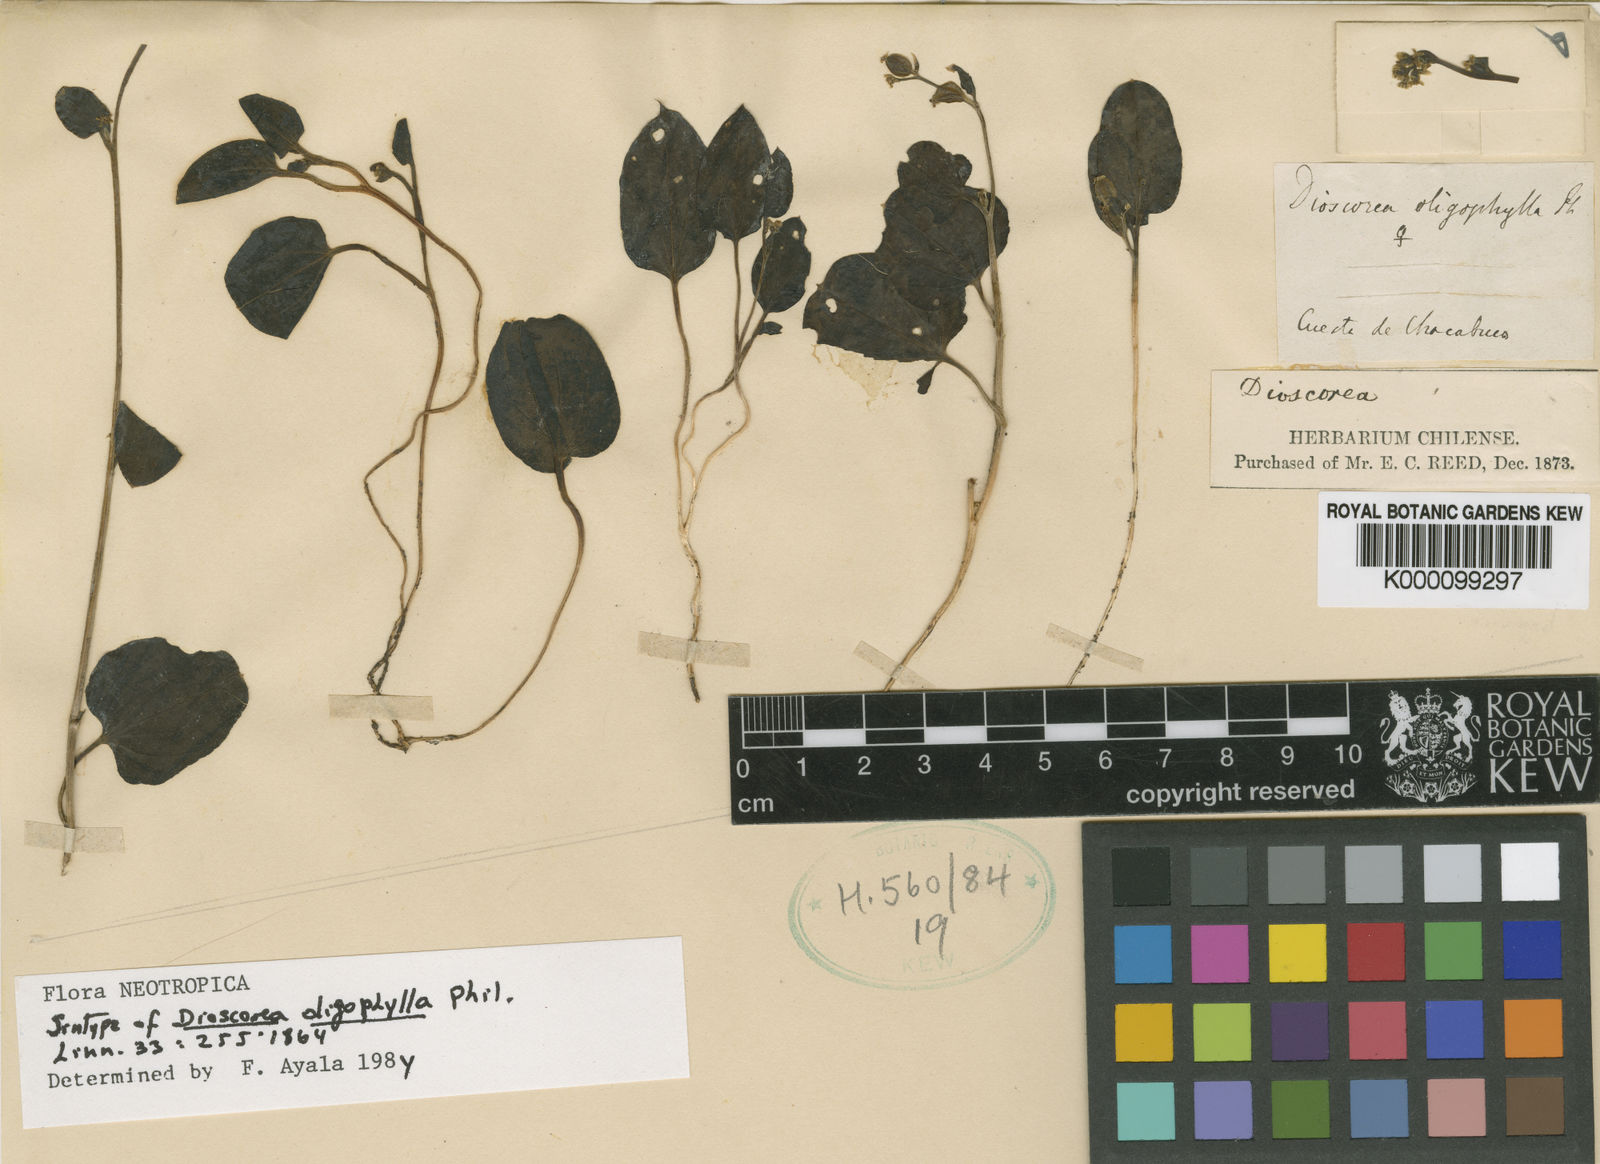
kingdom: Plantae
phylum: Tracheophyta
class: Liliopsida
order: Dioscoreales
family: Dioscoreaceae
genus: Dioscorea
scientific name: Dioscorea oligophylla
